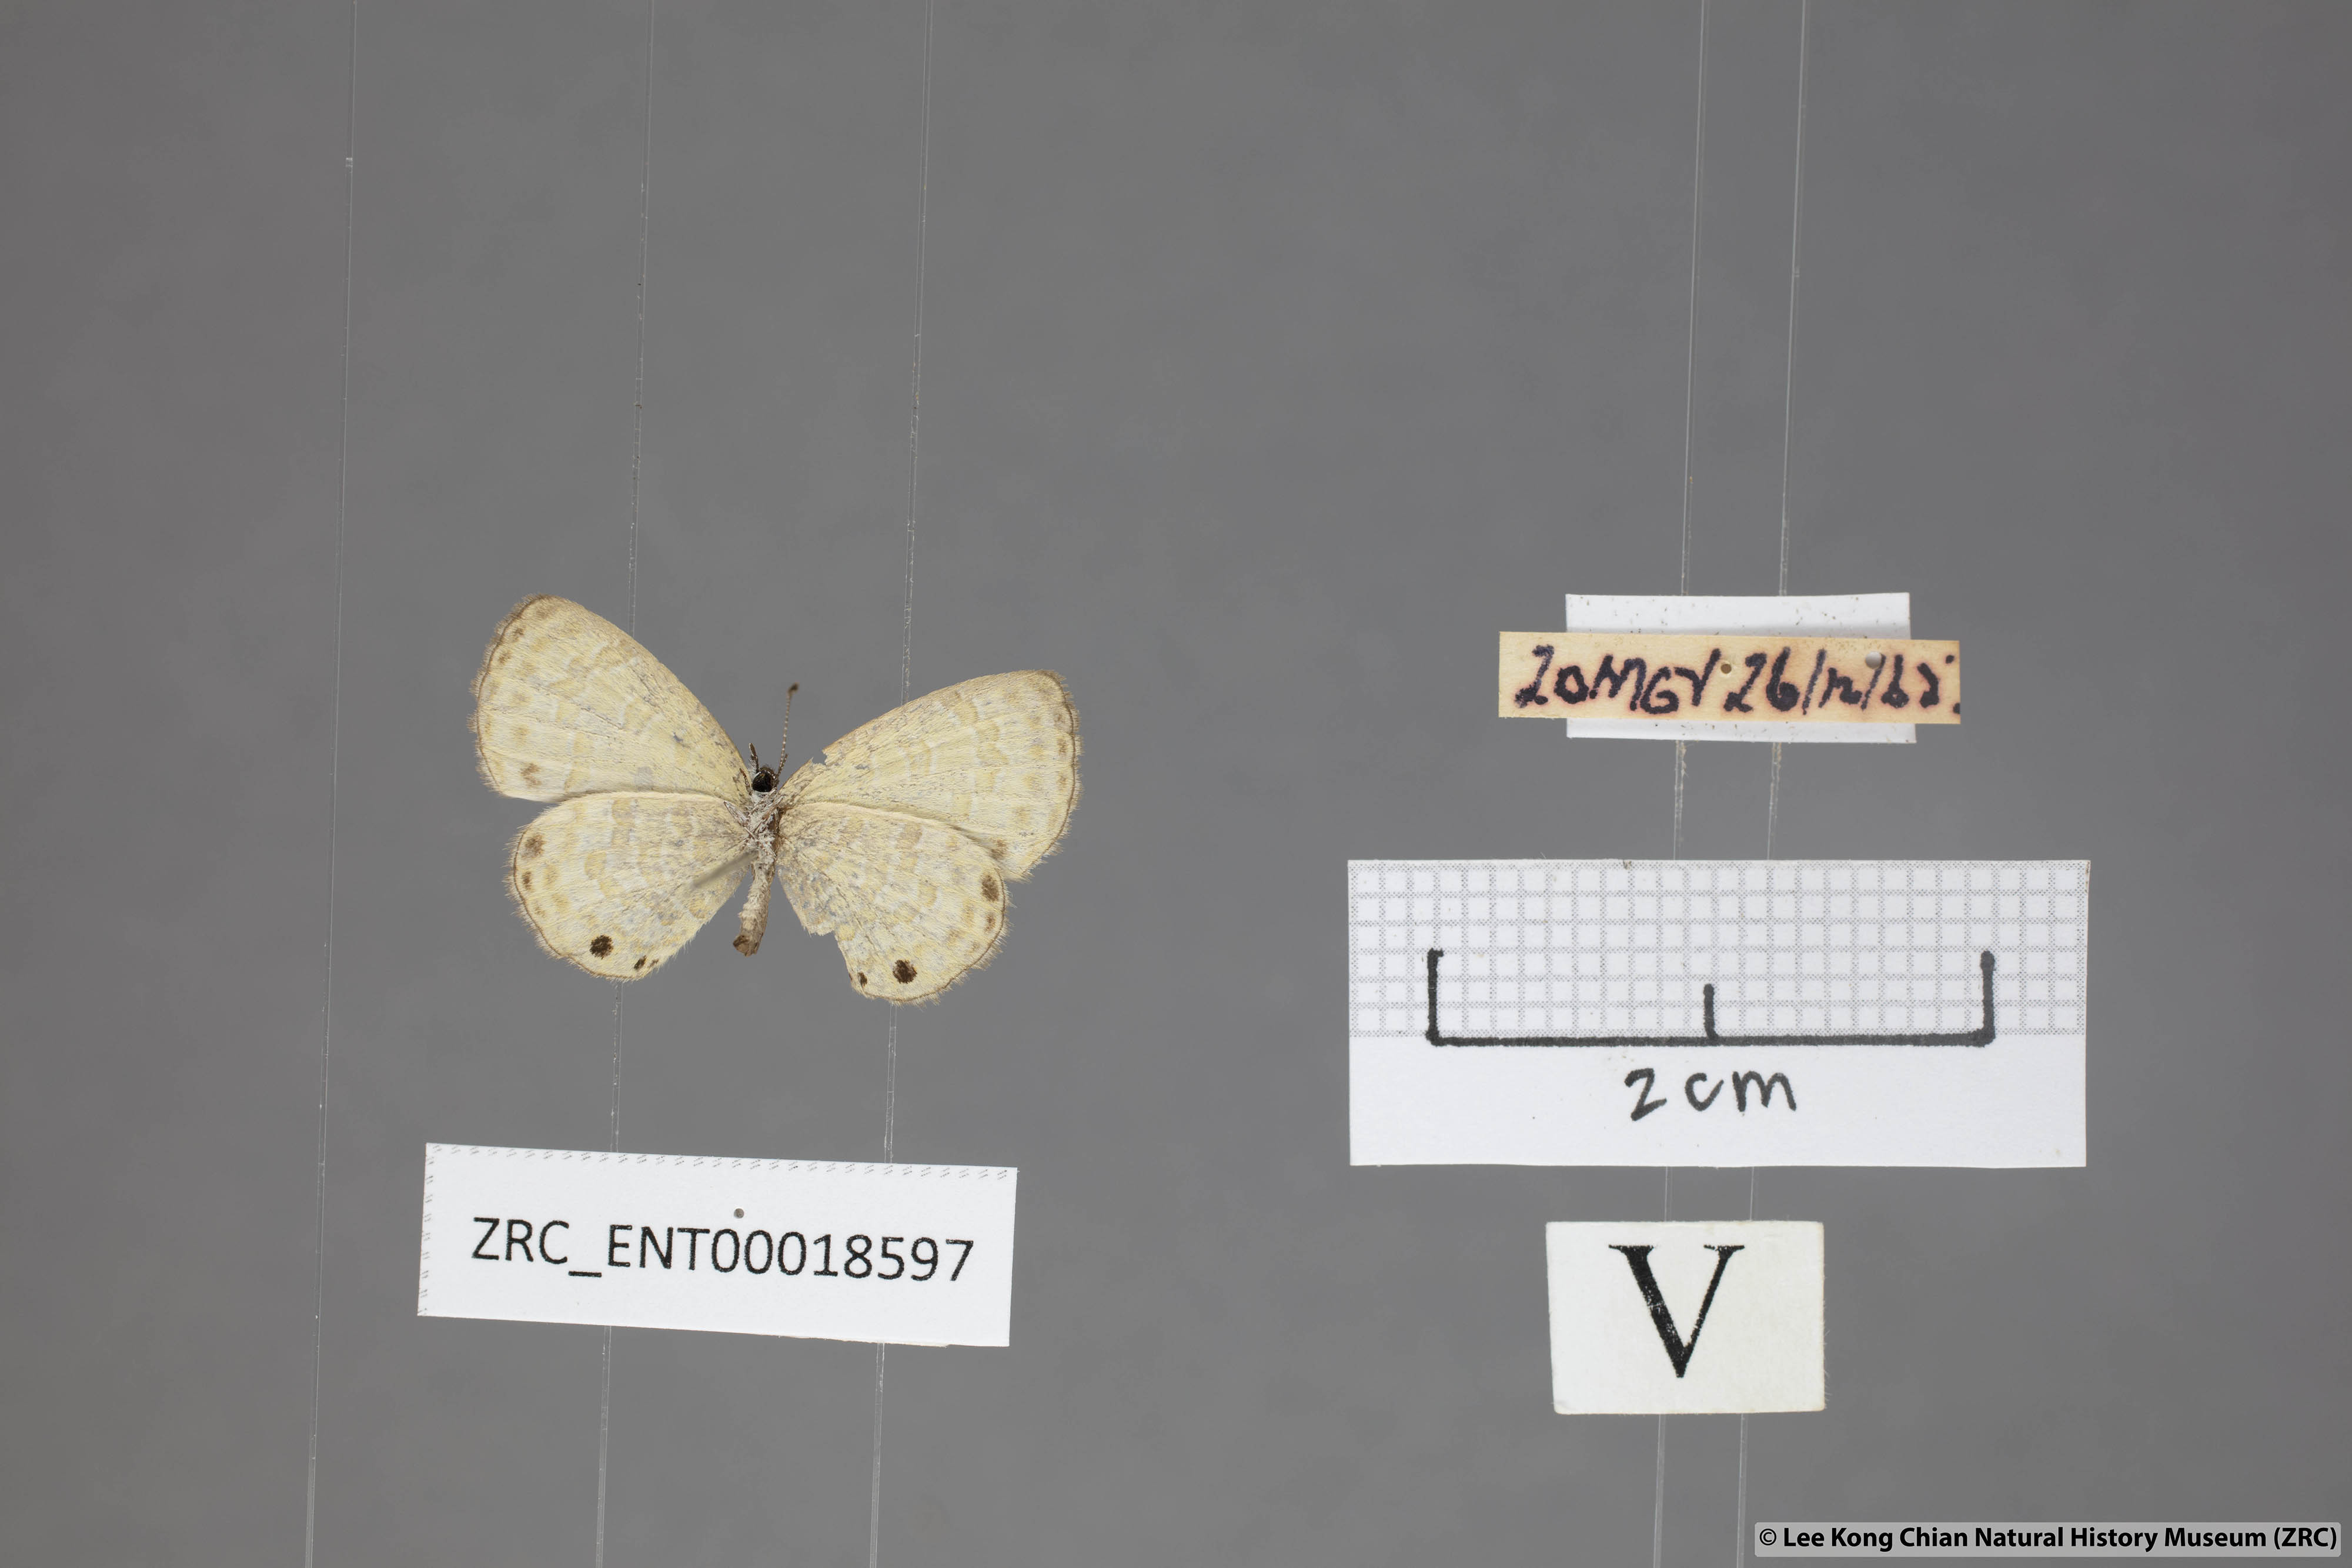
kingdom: Animalia
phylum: Arthropoda
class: Insecta
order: Lepidoptera
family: Lycaenidae
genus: Prosotas
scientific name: Prosotas lutea
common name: Brown lineblue
